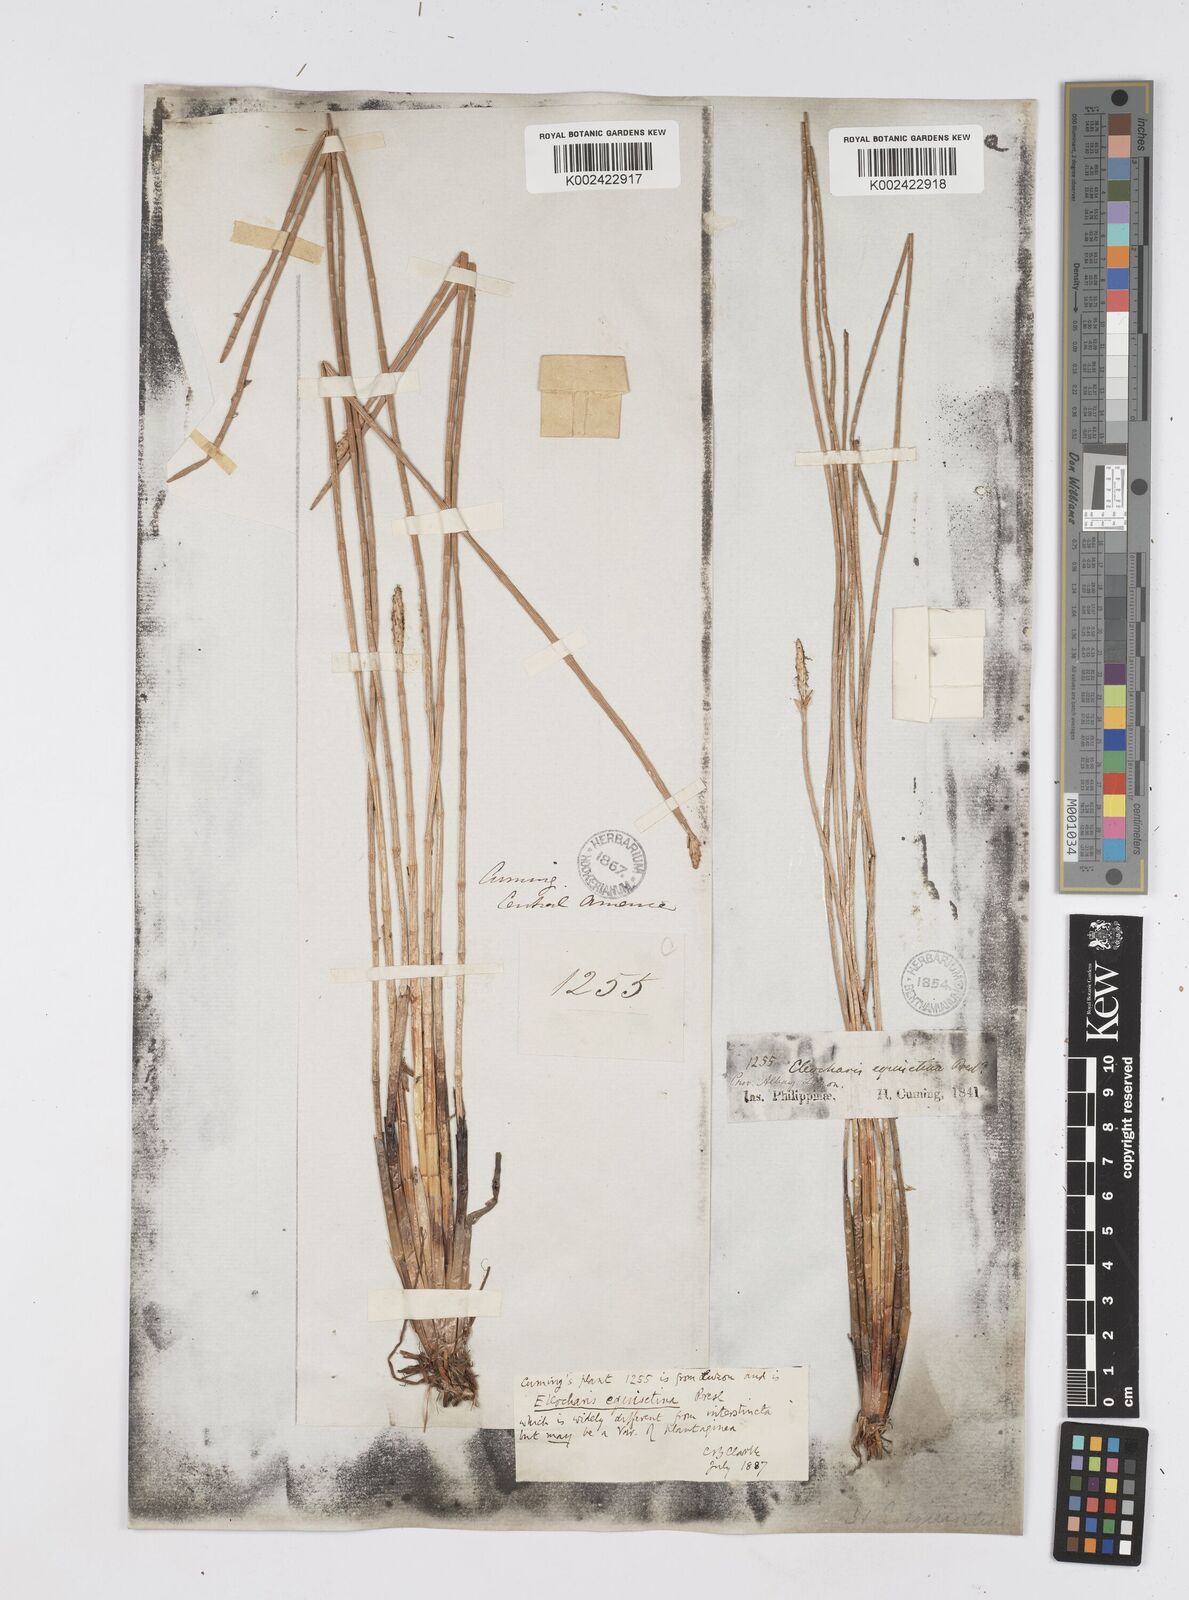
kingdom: Plantae
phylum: Tracheophyta
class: Liliopsida
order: Poales
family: Cyperaceae
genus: Eleocharis
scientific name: Eleocharis dulcis
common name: Chinese water chestnut
